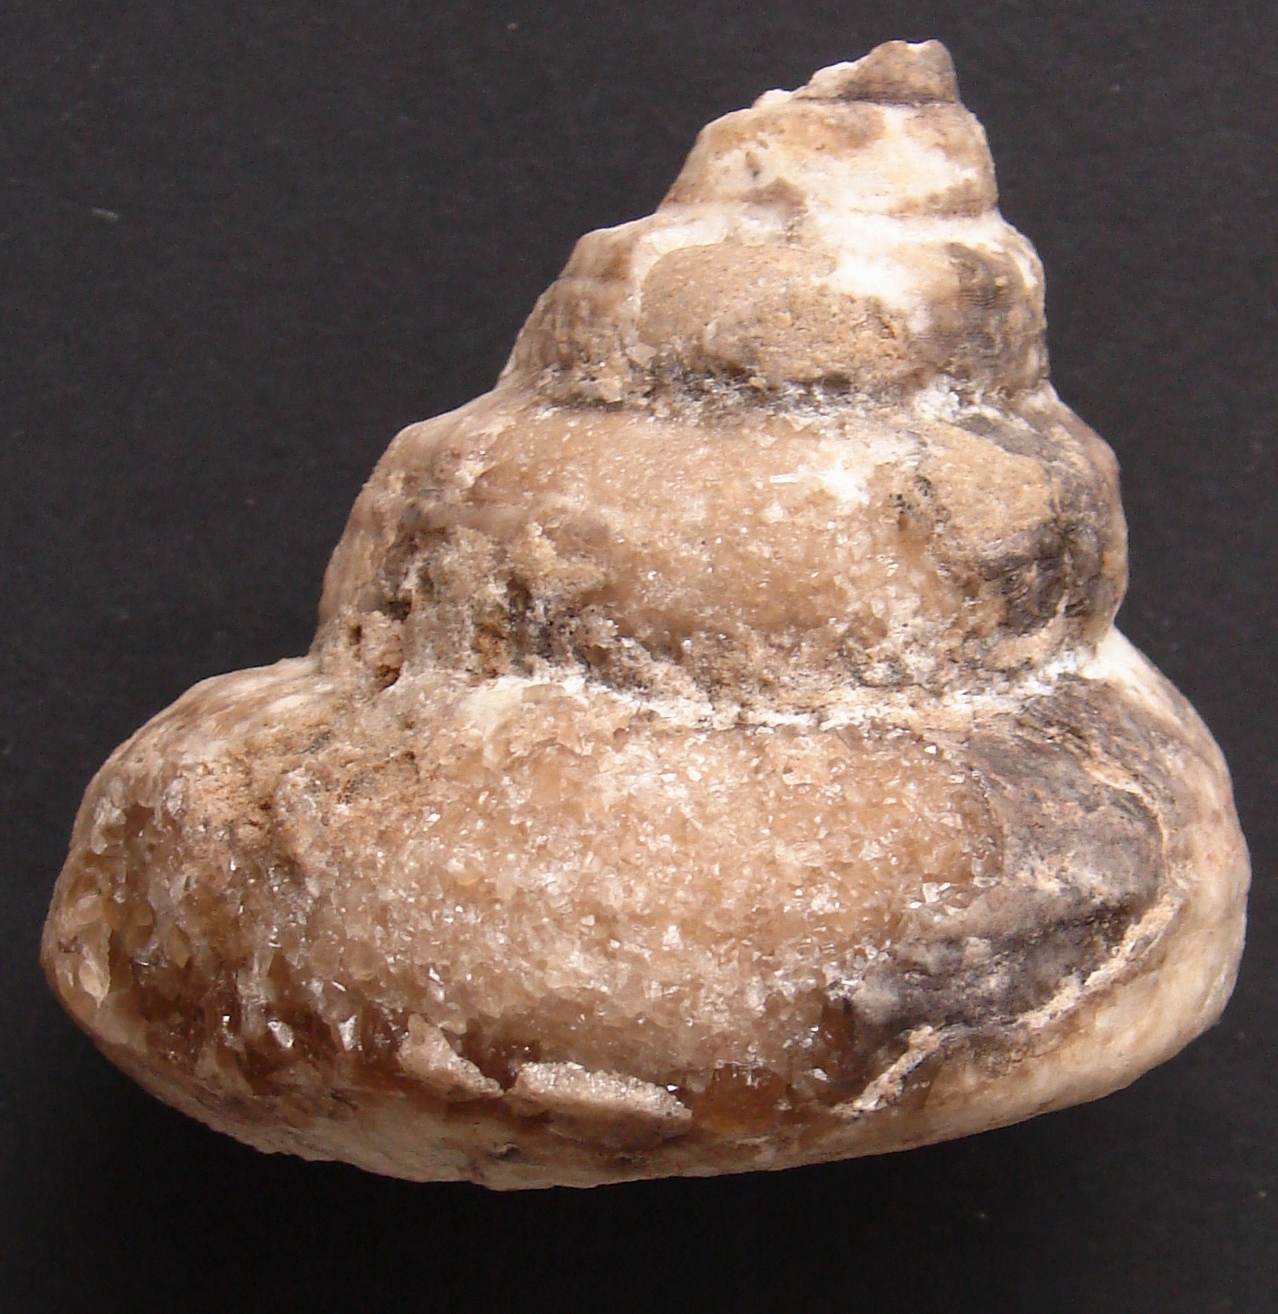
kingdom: Animalia
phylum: Mollusca
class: Gastropoda
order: Pleurotomariida
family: Pleurotomariidae
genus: Pleurotomaria
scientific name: Pleurotomaria wanderbachi
